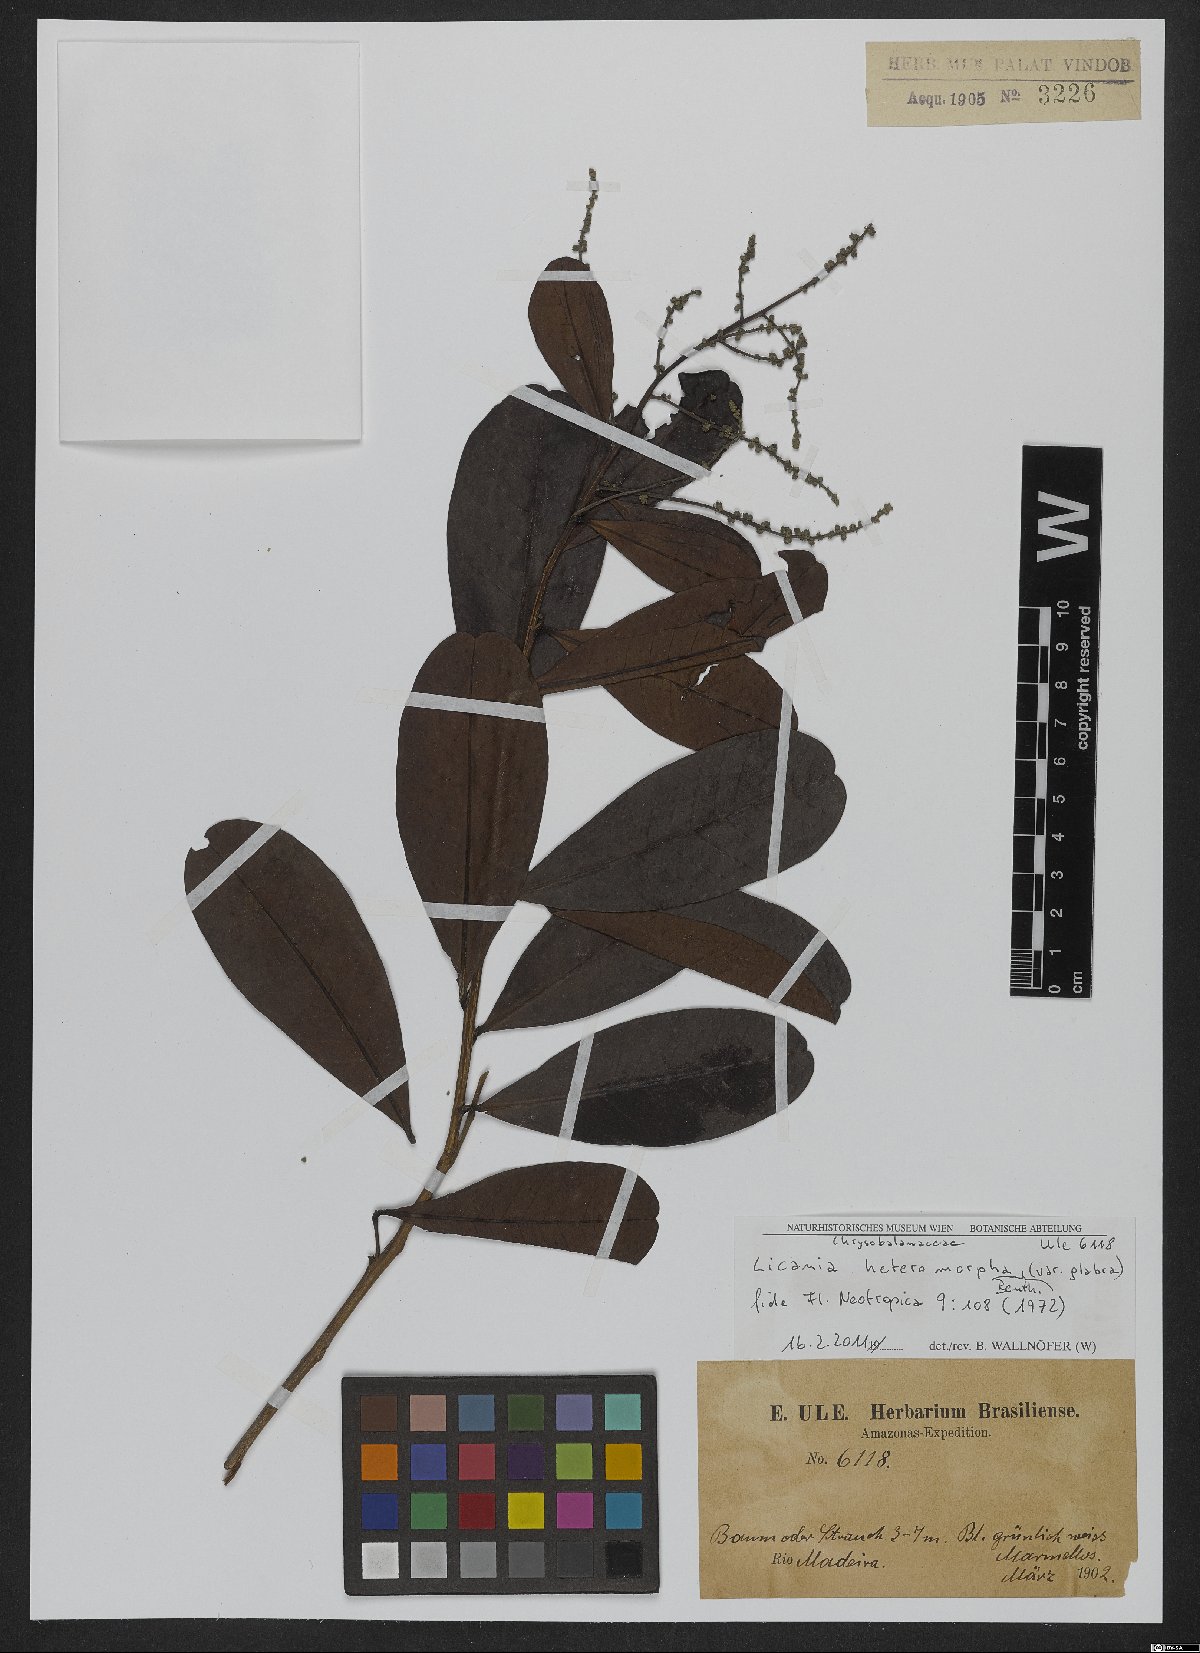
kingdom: Plantae
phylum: Tracheophyta
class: Magnoliopsida
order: Malpighiales
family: Chrysobalanaceae
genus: Hymenopus
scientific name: Hymenopus heteromorphus
